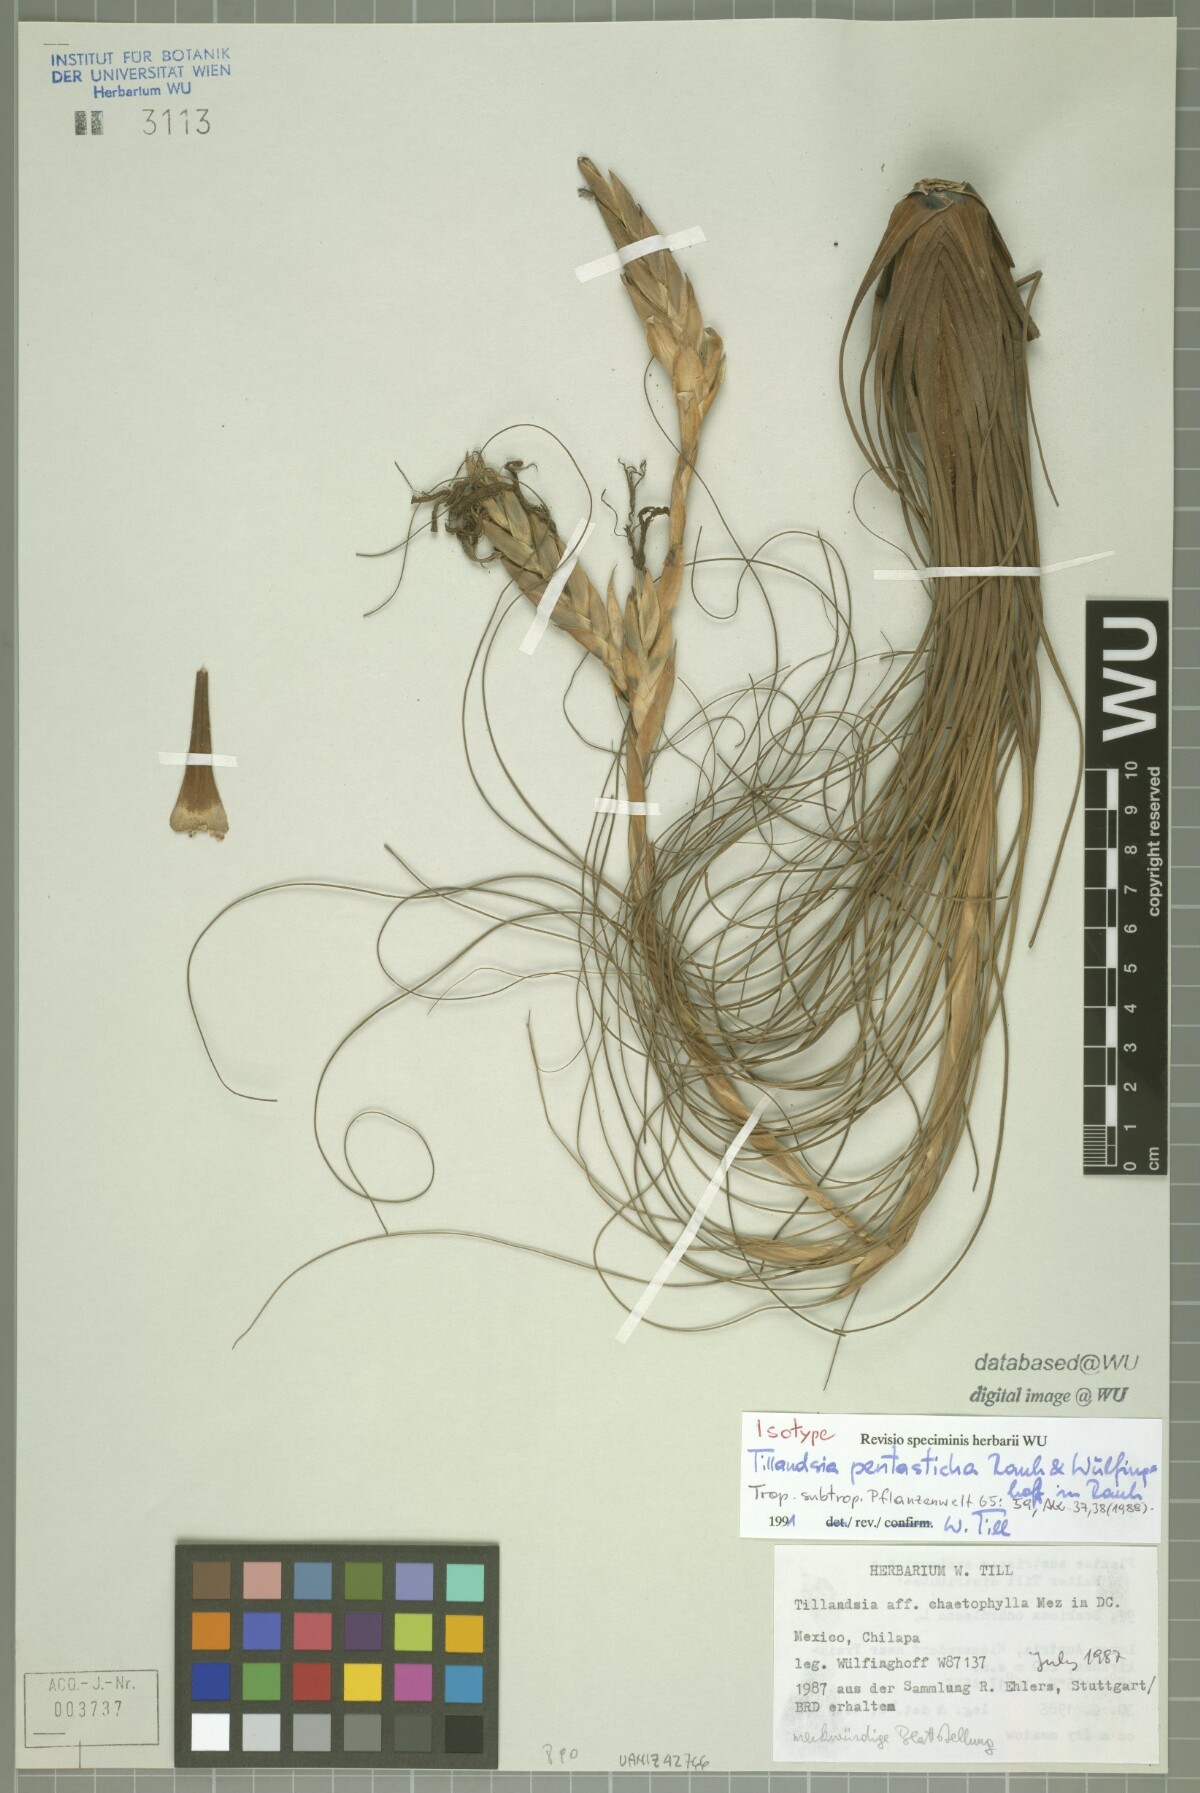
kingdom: Plantae
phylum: Tracheophyta
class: Liliopsida
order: Poales
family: Bromeliaceae
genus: Tillandsia
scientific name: Tillandsia pentasticha
